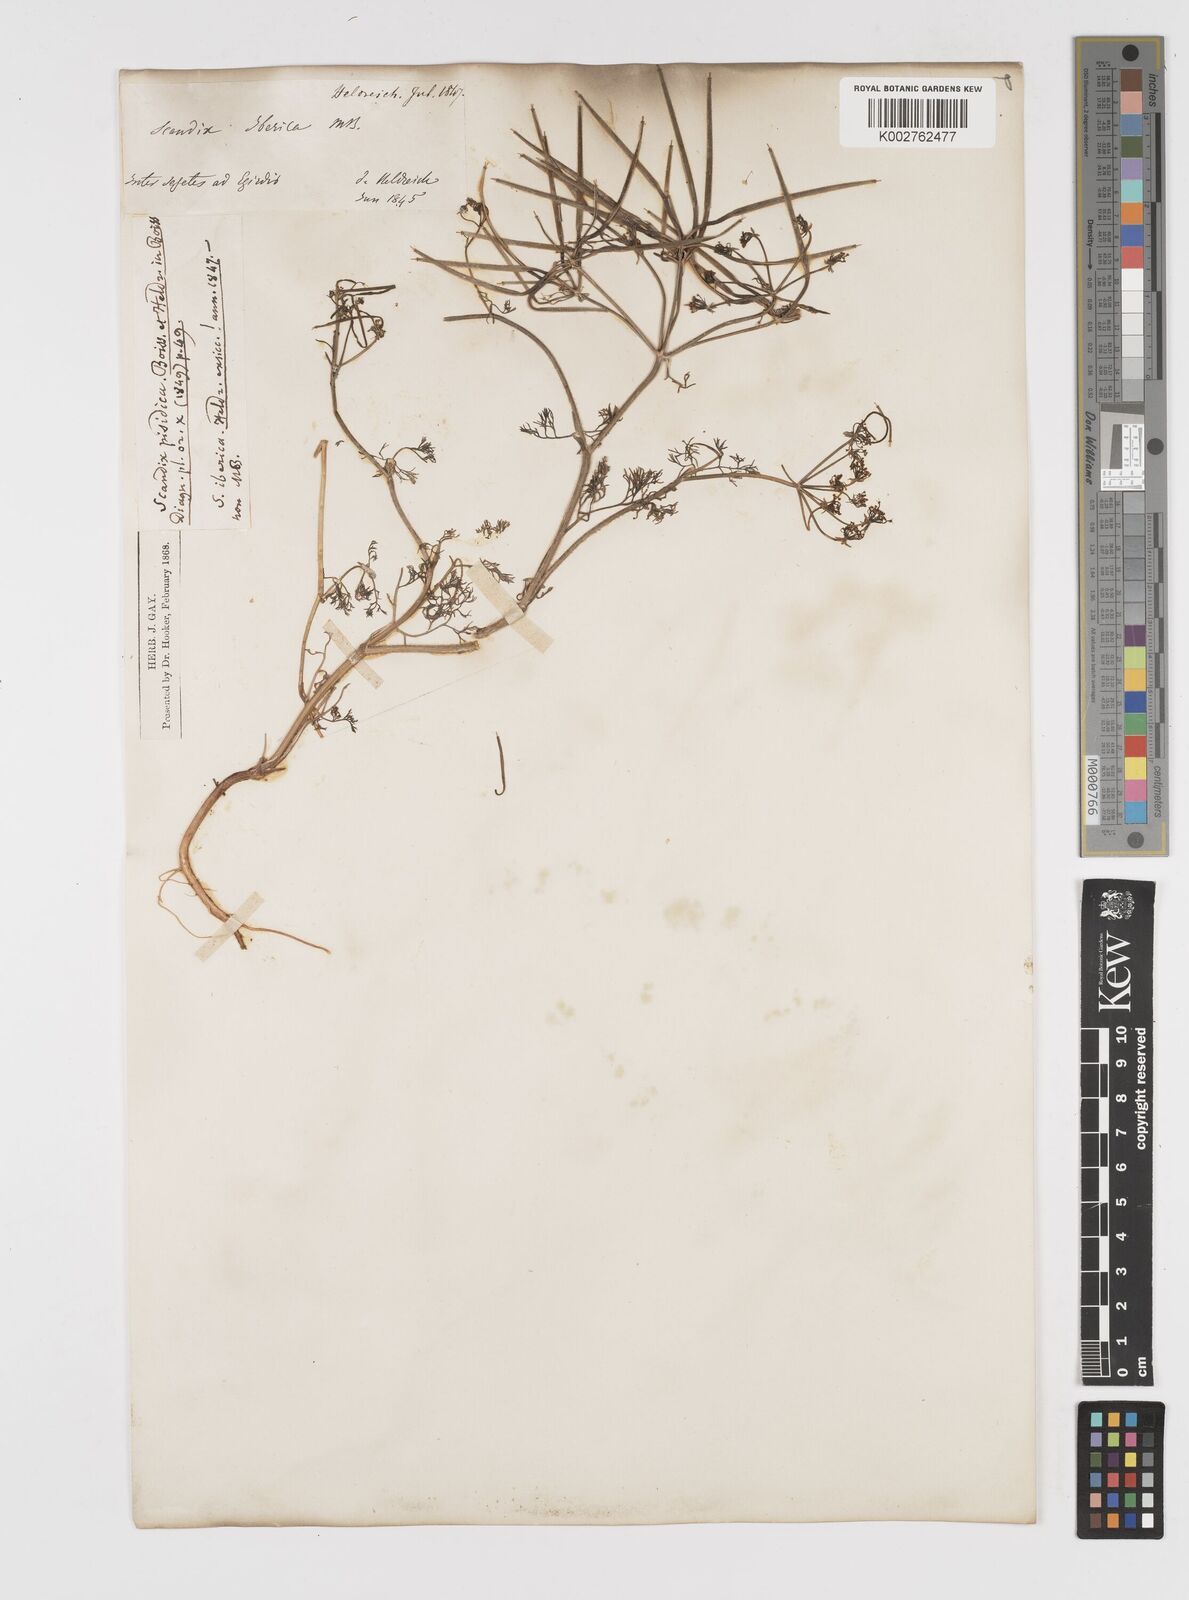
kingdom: Plantae
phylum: Tracheophyta
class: Magnoliopsida
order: Apiales
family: Apiaceae
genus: Scandix
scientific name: Scandix iberica
